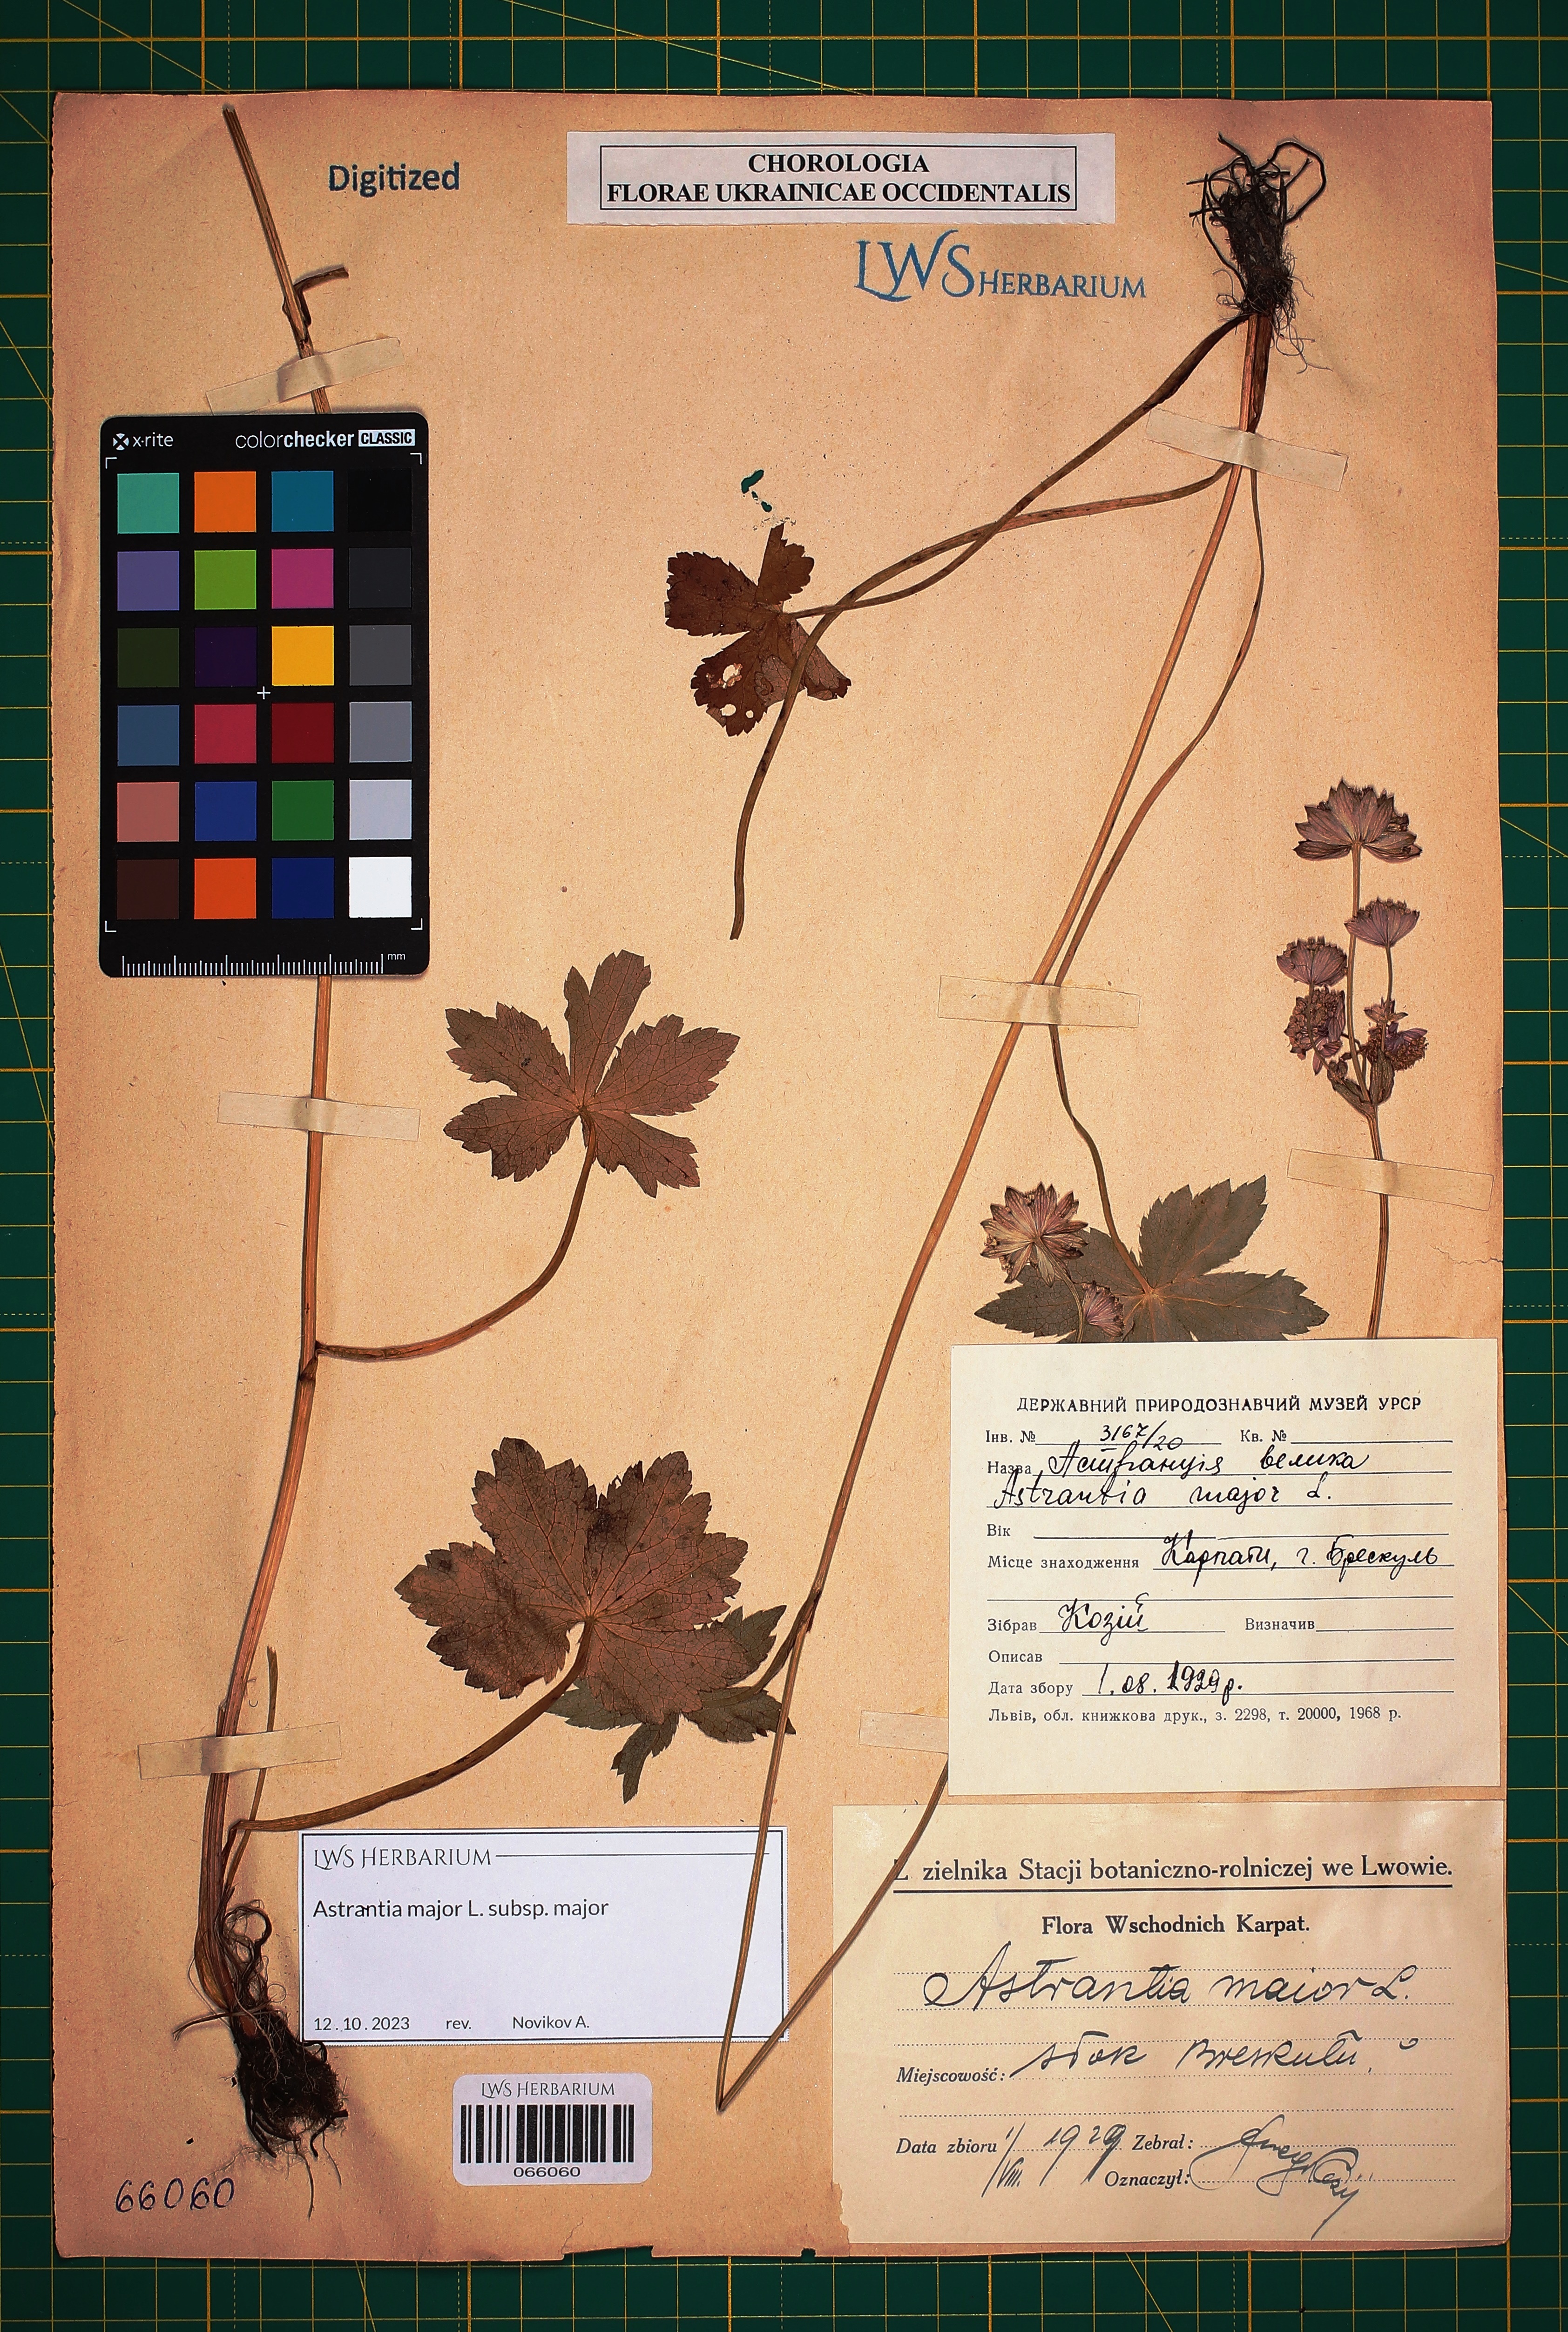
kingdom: Plantae
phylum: Tracheophyta
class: Magnoliopsida
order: Apiales
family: Apiaceae
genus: Astrantia
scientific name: Astrantia major
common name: Greater masterwort
